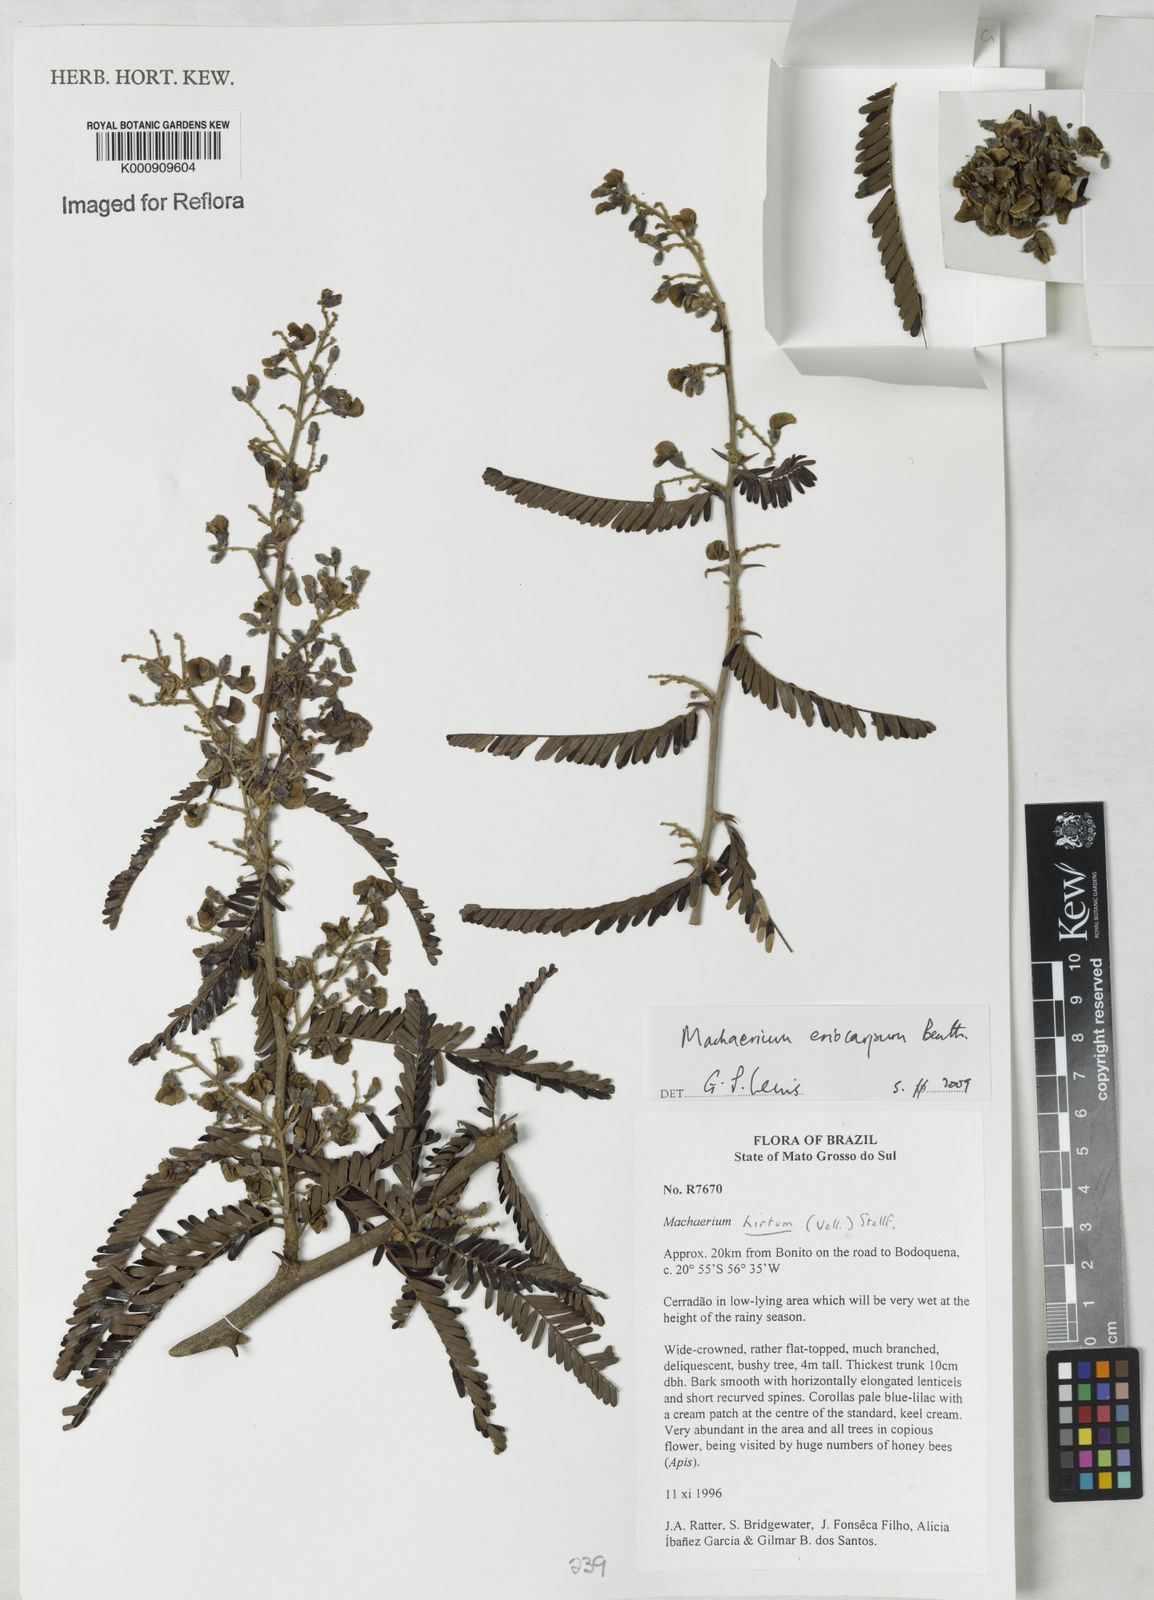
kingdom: Plantae
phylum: Tracheophyta
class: Magnoliopsida
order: Fabales
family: Fabaceae
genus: Machaerium
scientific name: Machaerium eriocarpum
